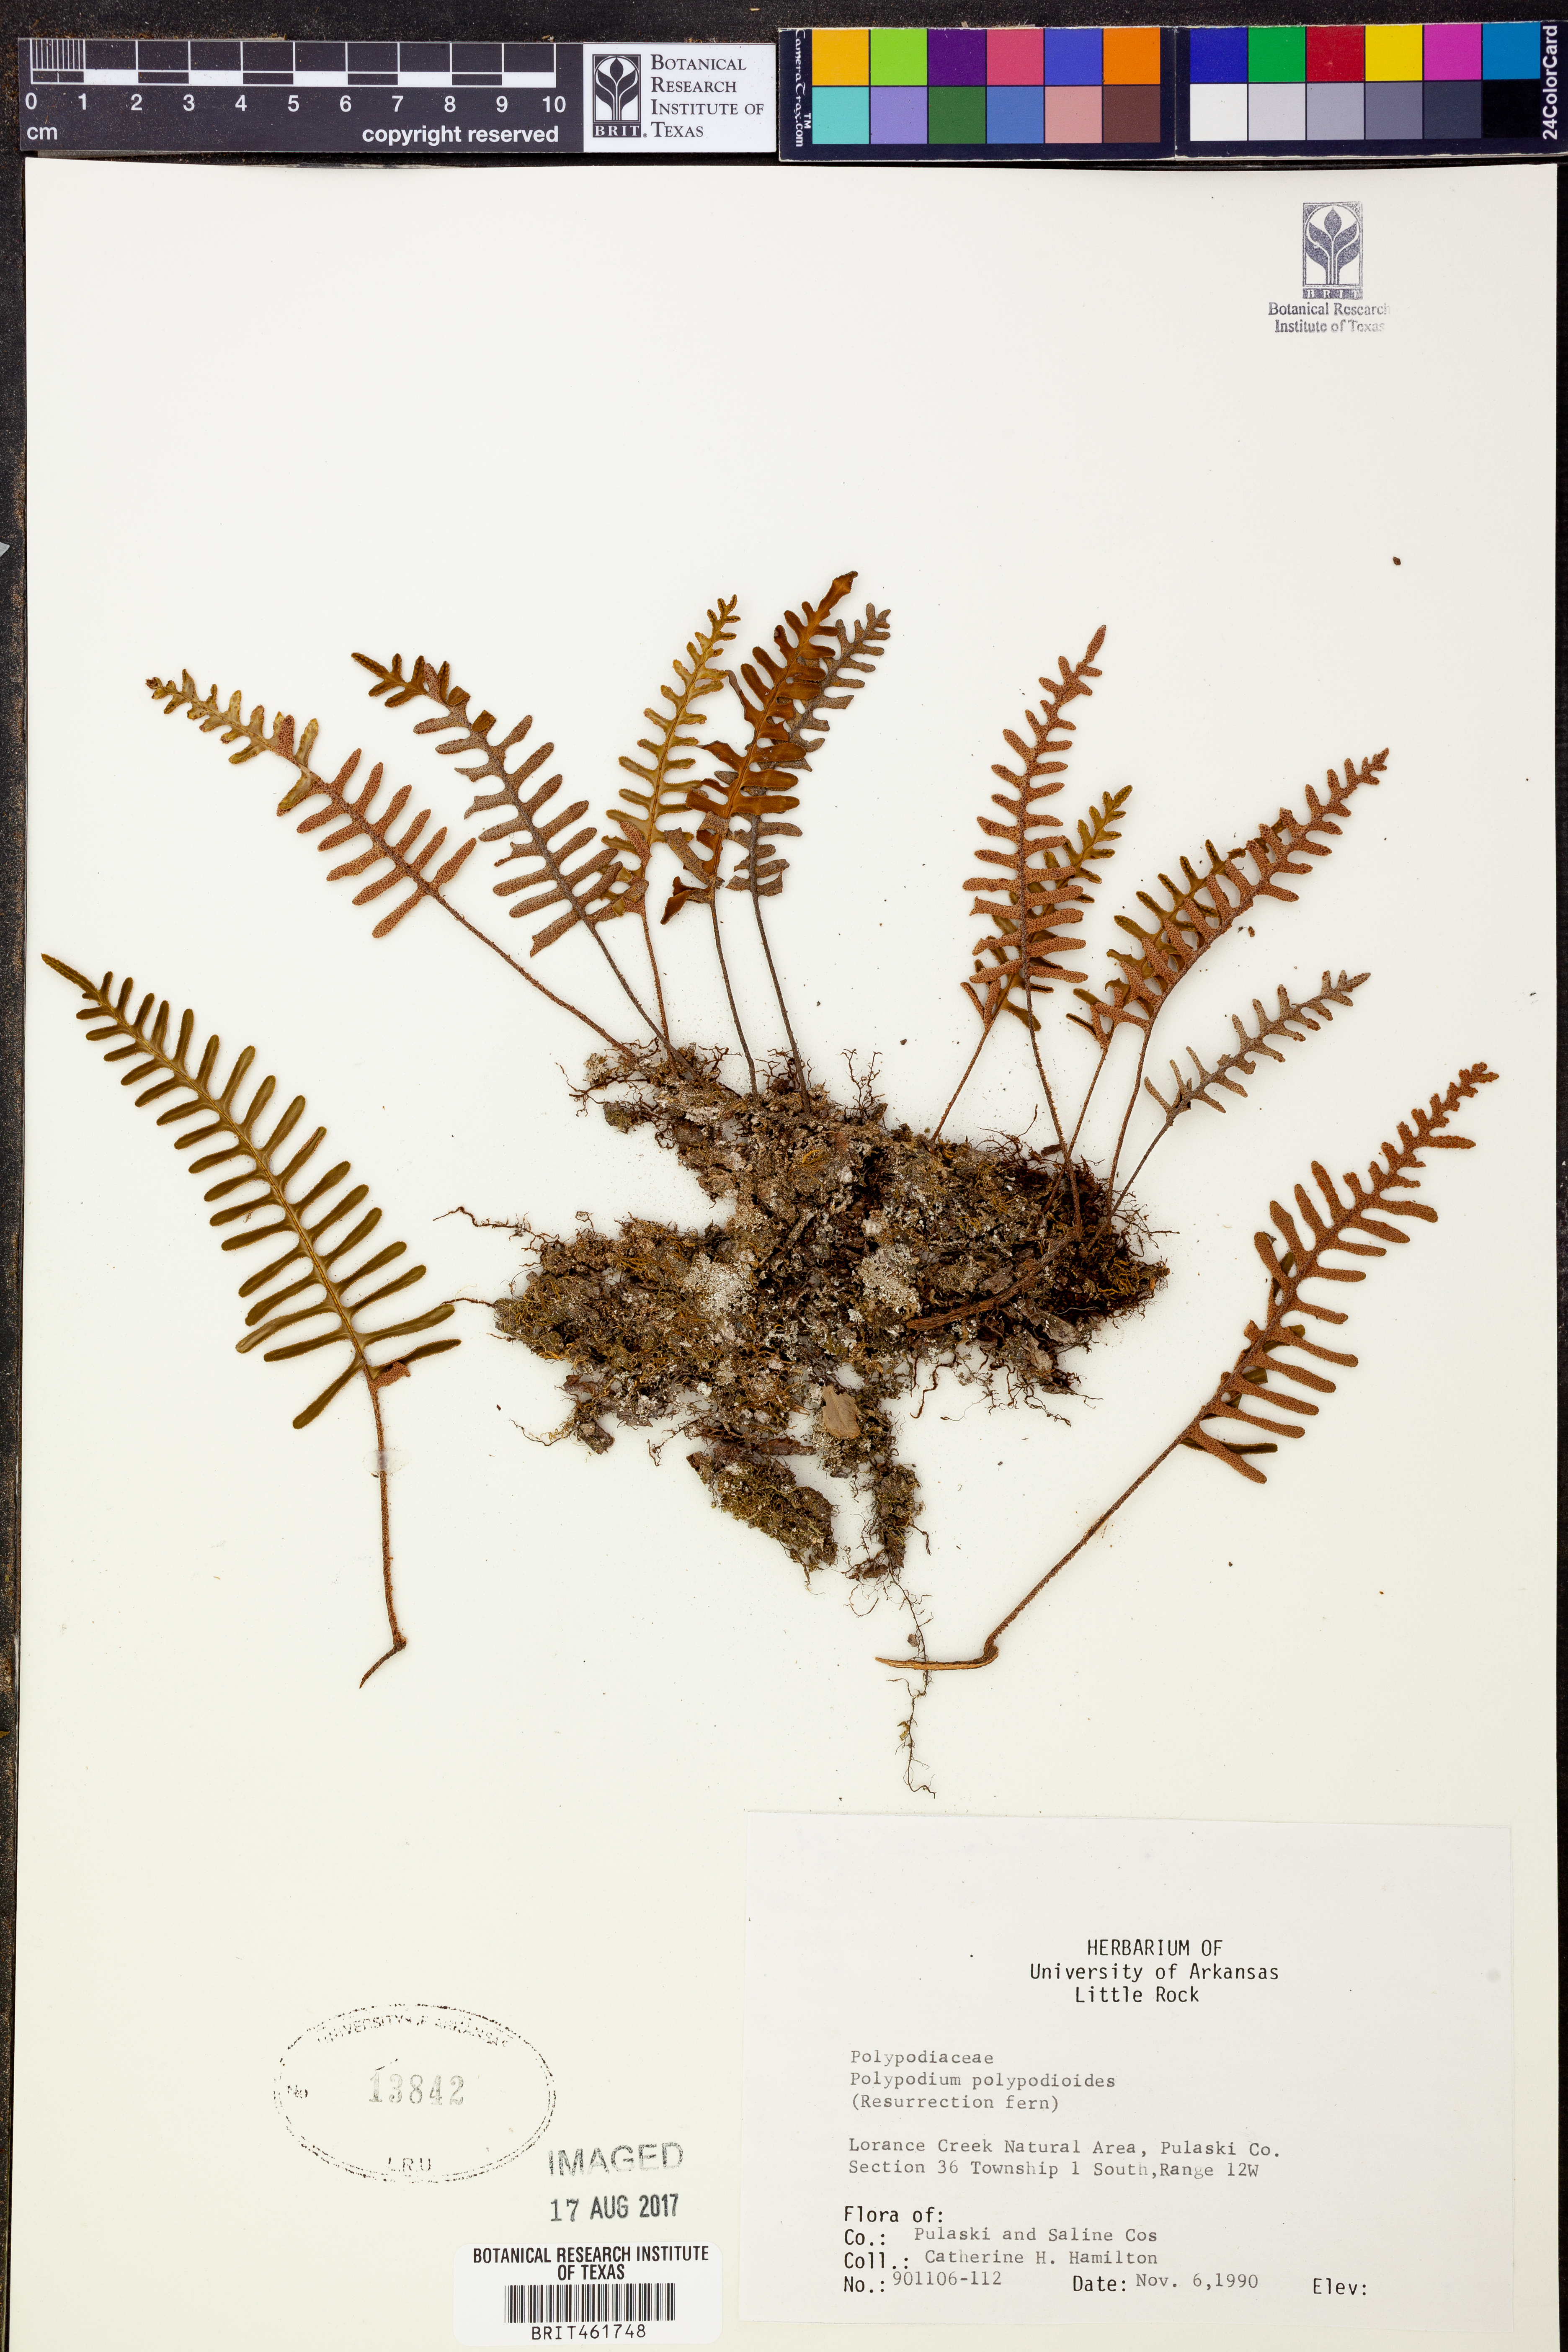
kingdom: Plantae
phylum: Tracheophyta
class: Polypodiopsida
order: Polypodiales
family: Polypodiaceae
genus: Pleopeltis
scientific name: Pleopeltis polypodioides
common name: Resurrection fern
